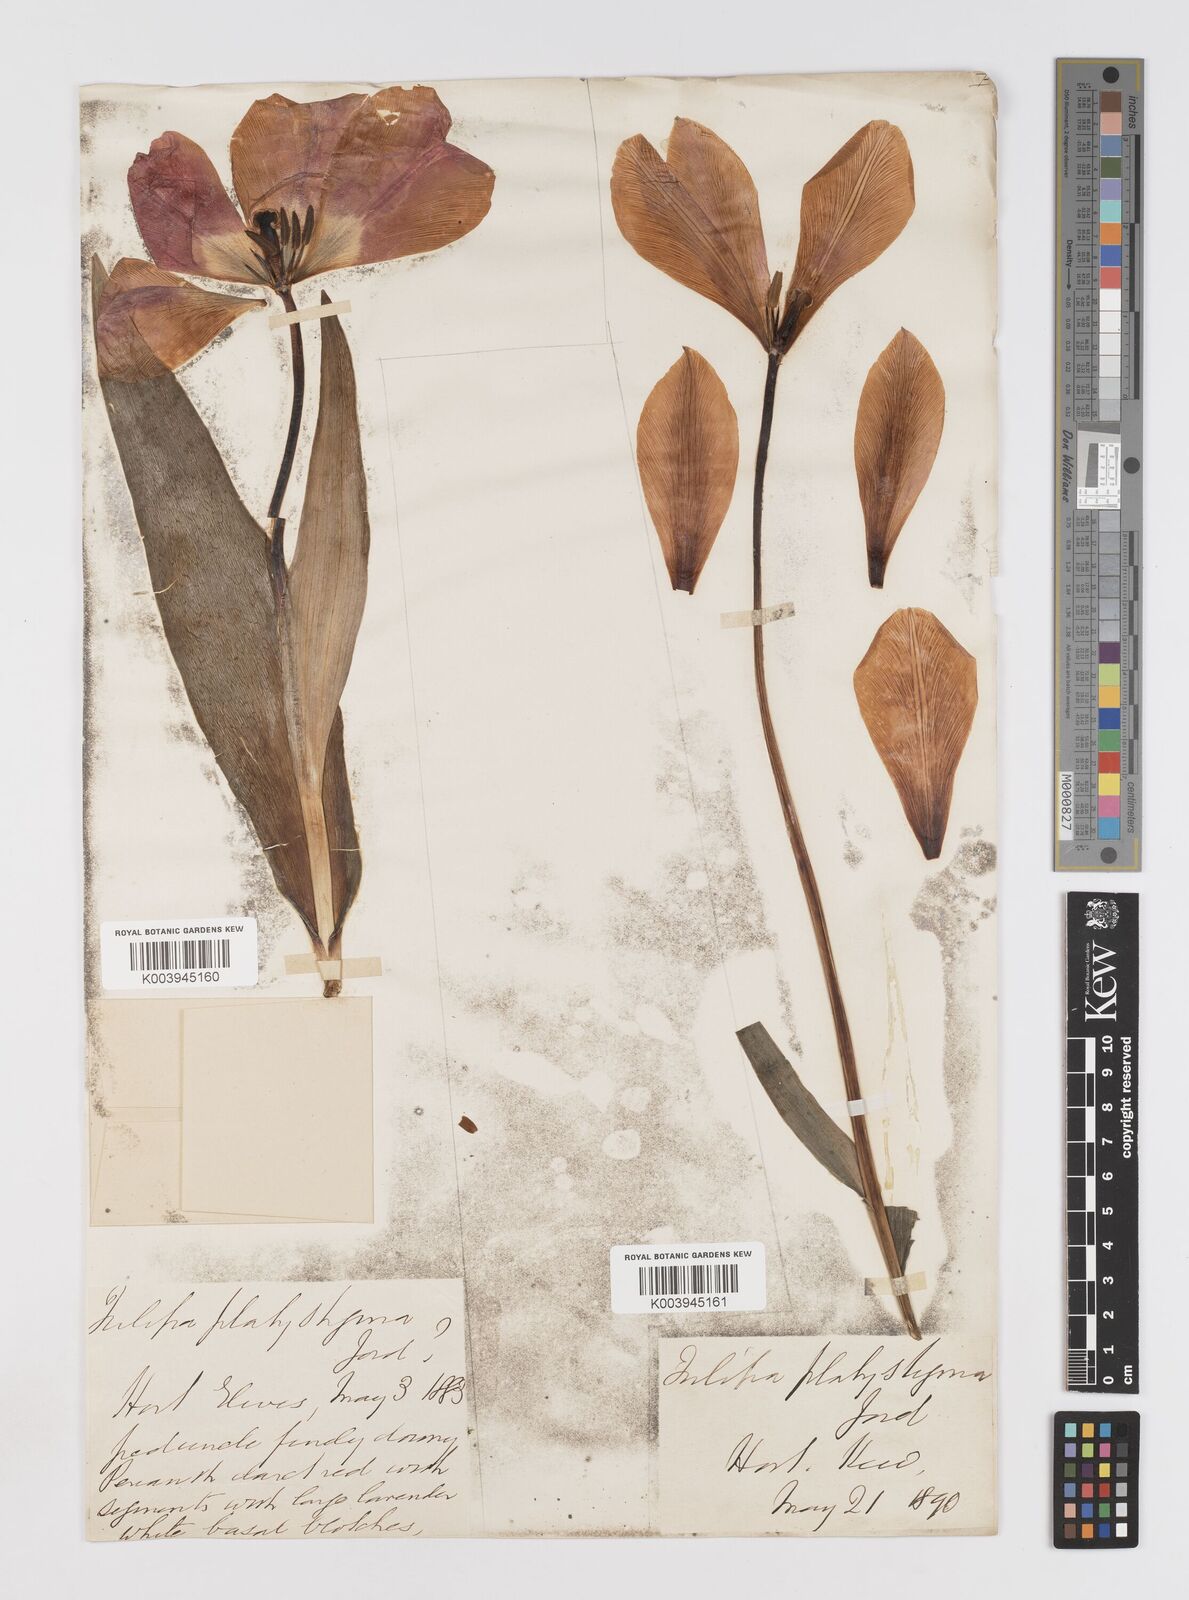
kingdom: Plantae
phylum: Tracheophyta
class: Liliopsida
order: Liliales
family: Liliaceae
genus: Tulipa
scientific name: Tulipa gesneriana
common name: Garden tulip
